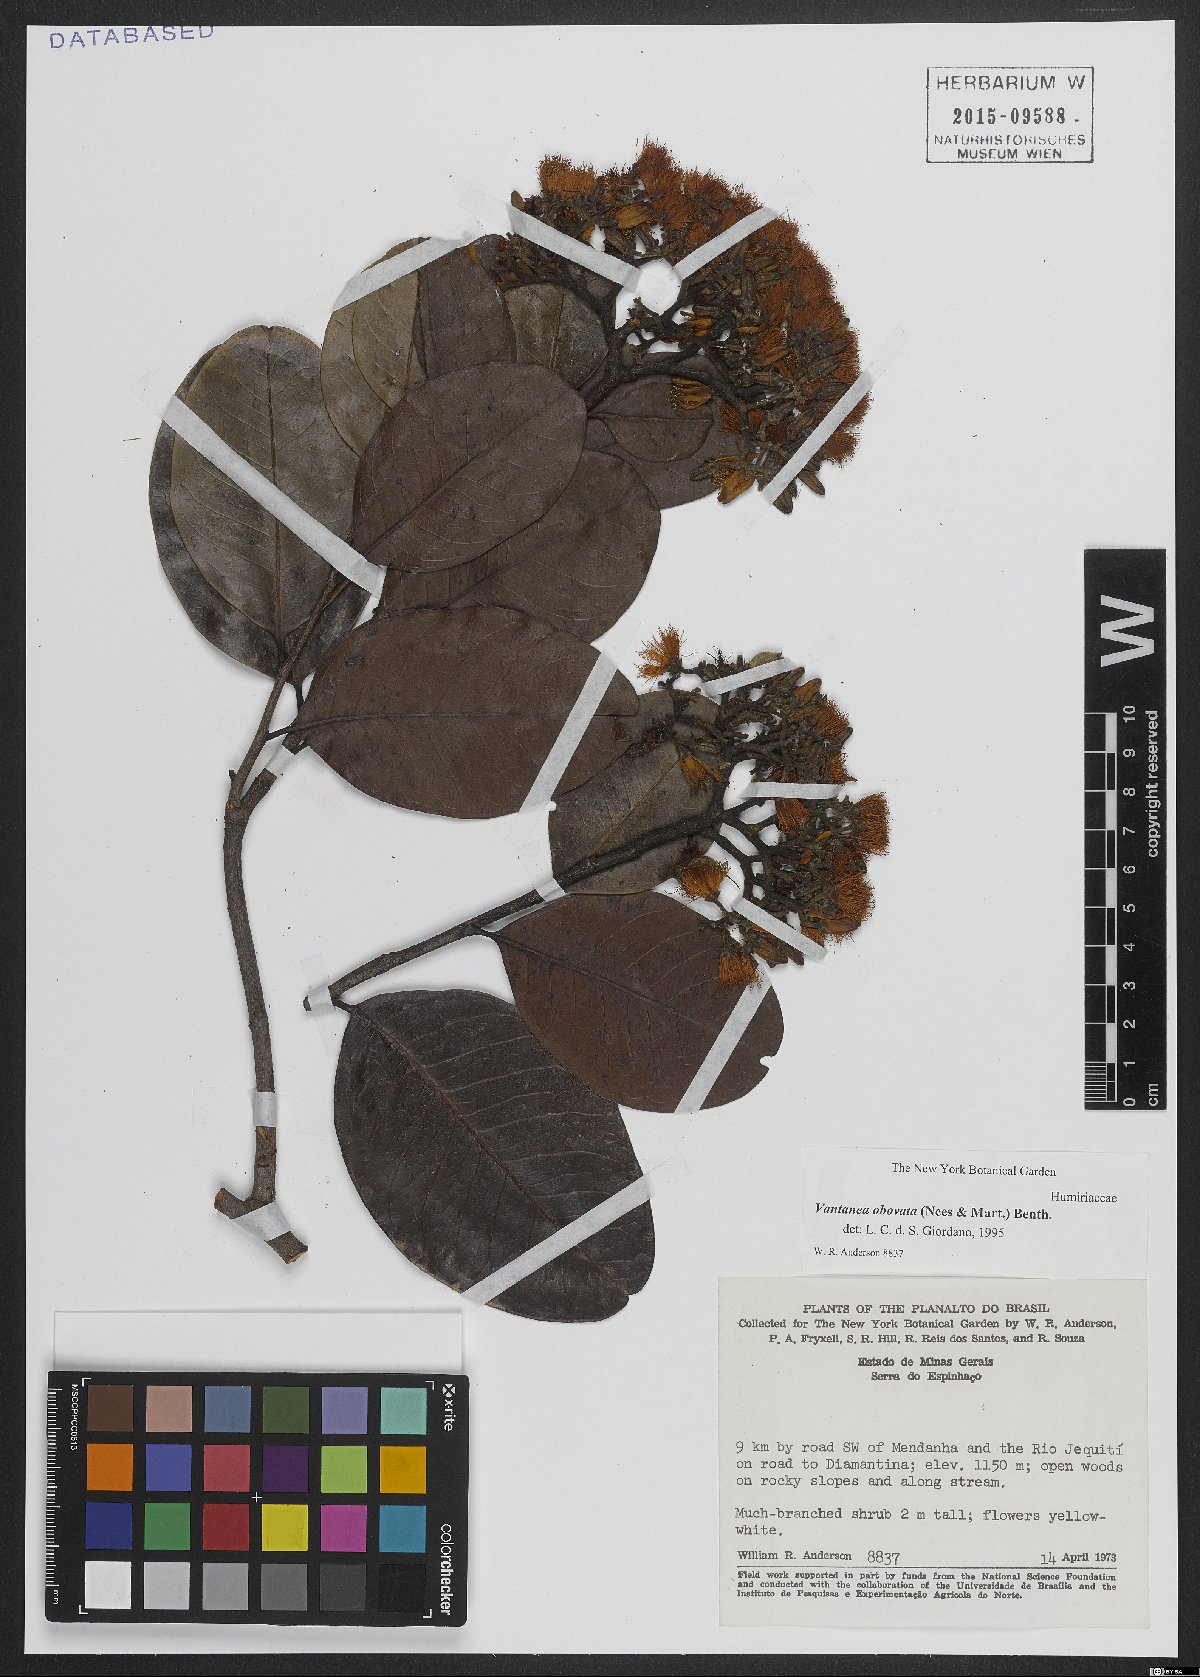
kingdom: Plantae
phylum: Tracheophyta
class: Magnoliopsida
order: Malpighiales
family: Humiriaceae
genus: Vantanea
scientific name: Vantanea obovata
